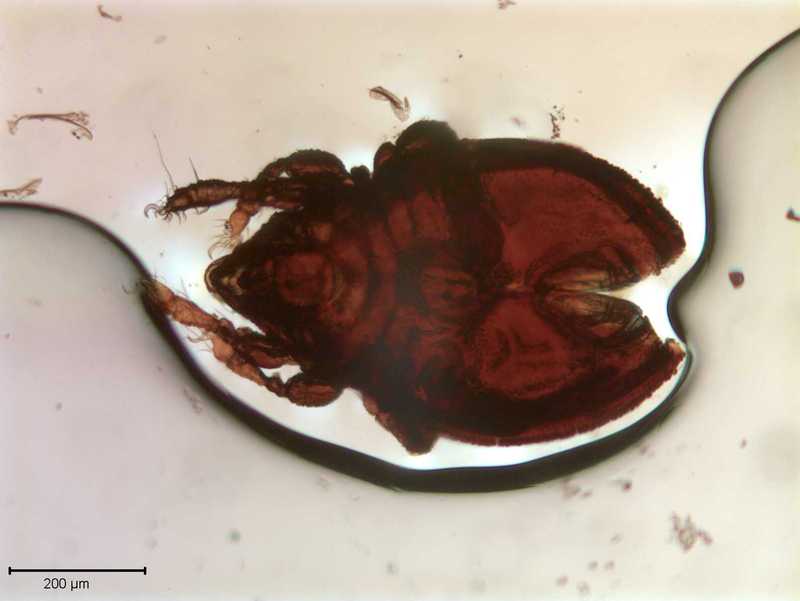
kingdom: Animalia
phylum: Arthropoda
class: Arachnida
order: Sarcoptiformes
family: Scutoverticidae
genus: Scutovertex
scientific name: Scutovertex minutus
